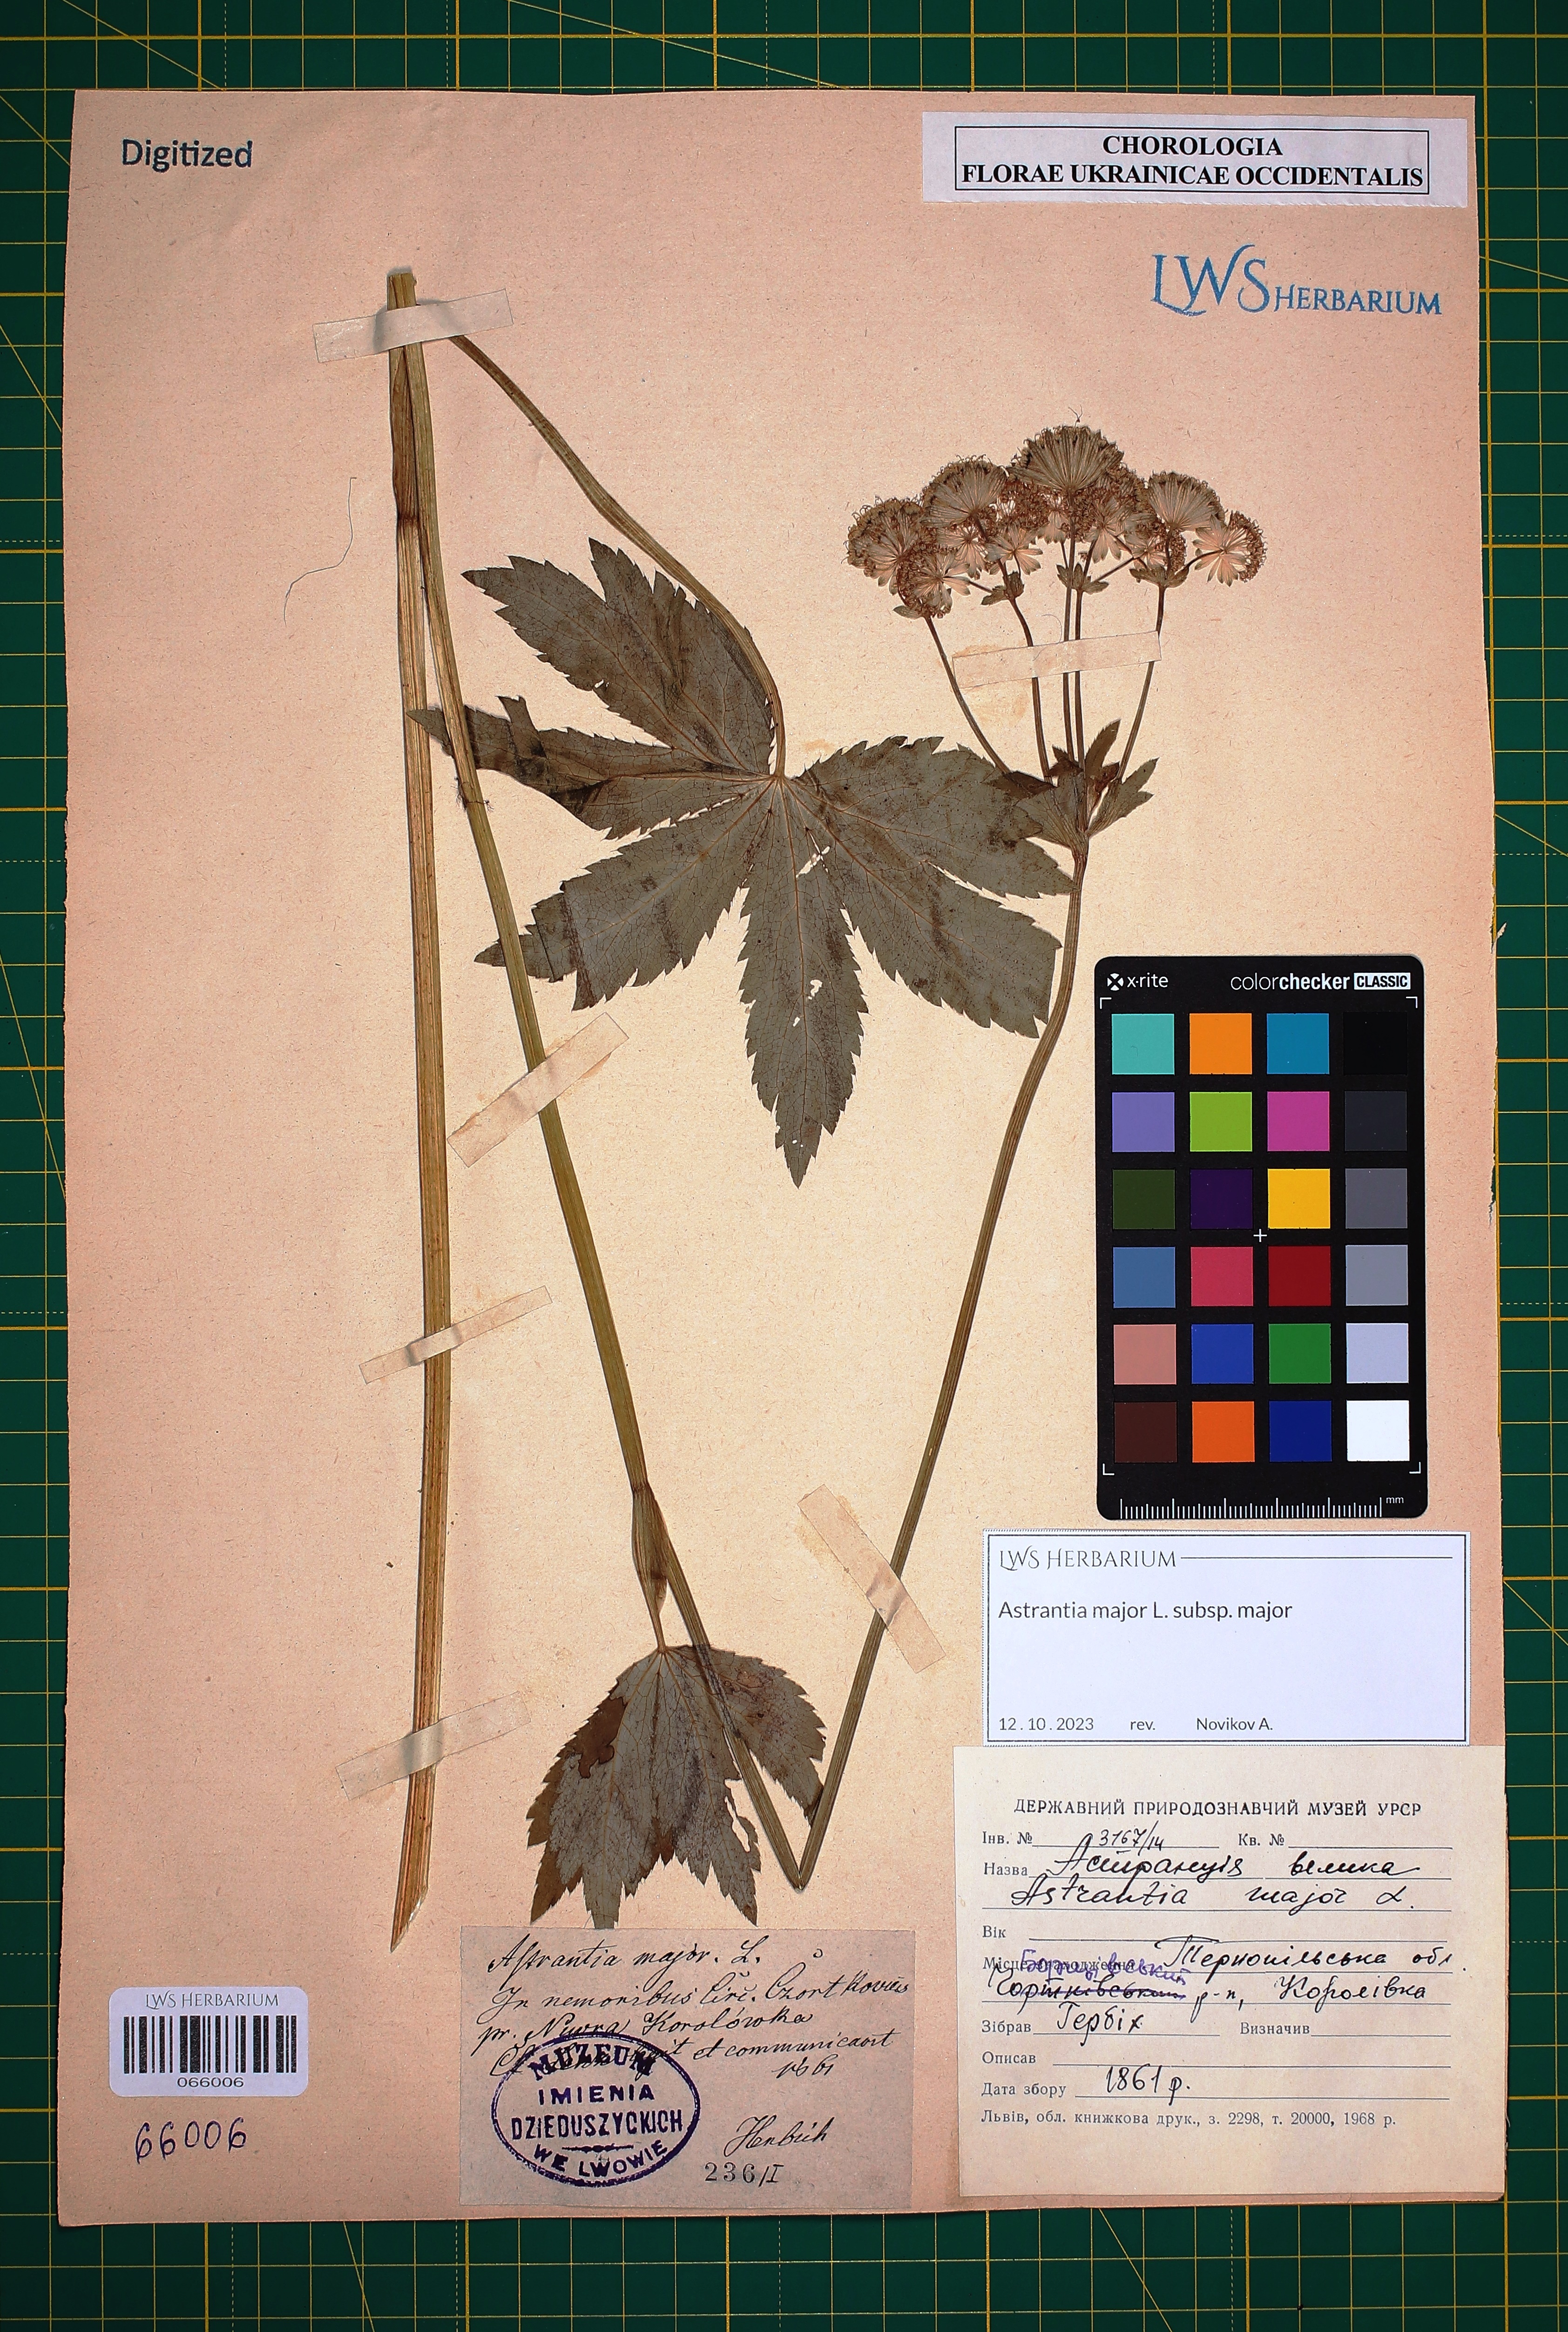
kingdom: Plantae
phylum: Tracheophyta
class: Magnoliopsida
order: Apiales
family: Apiaceae
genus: Astrantia
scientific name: Astrantia major
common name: Greater masterwort
